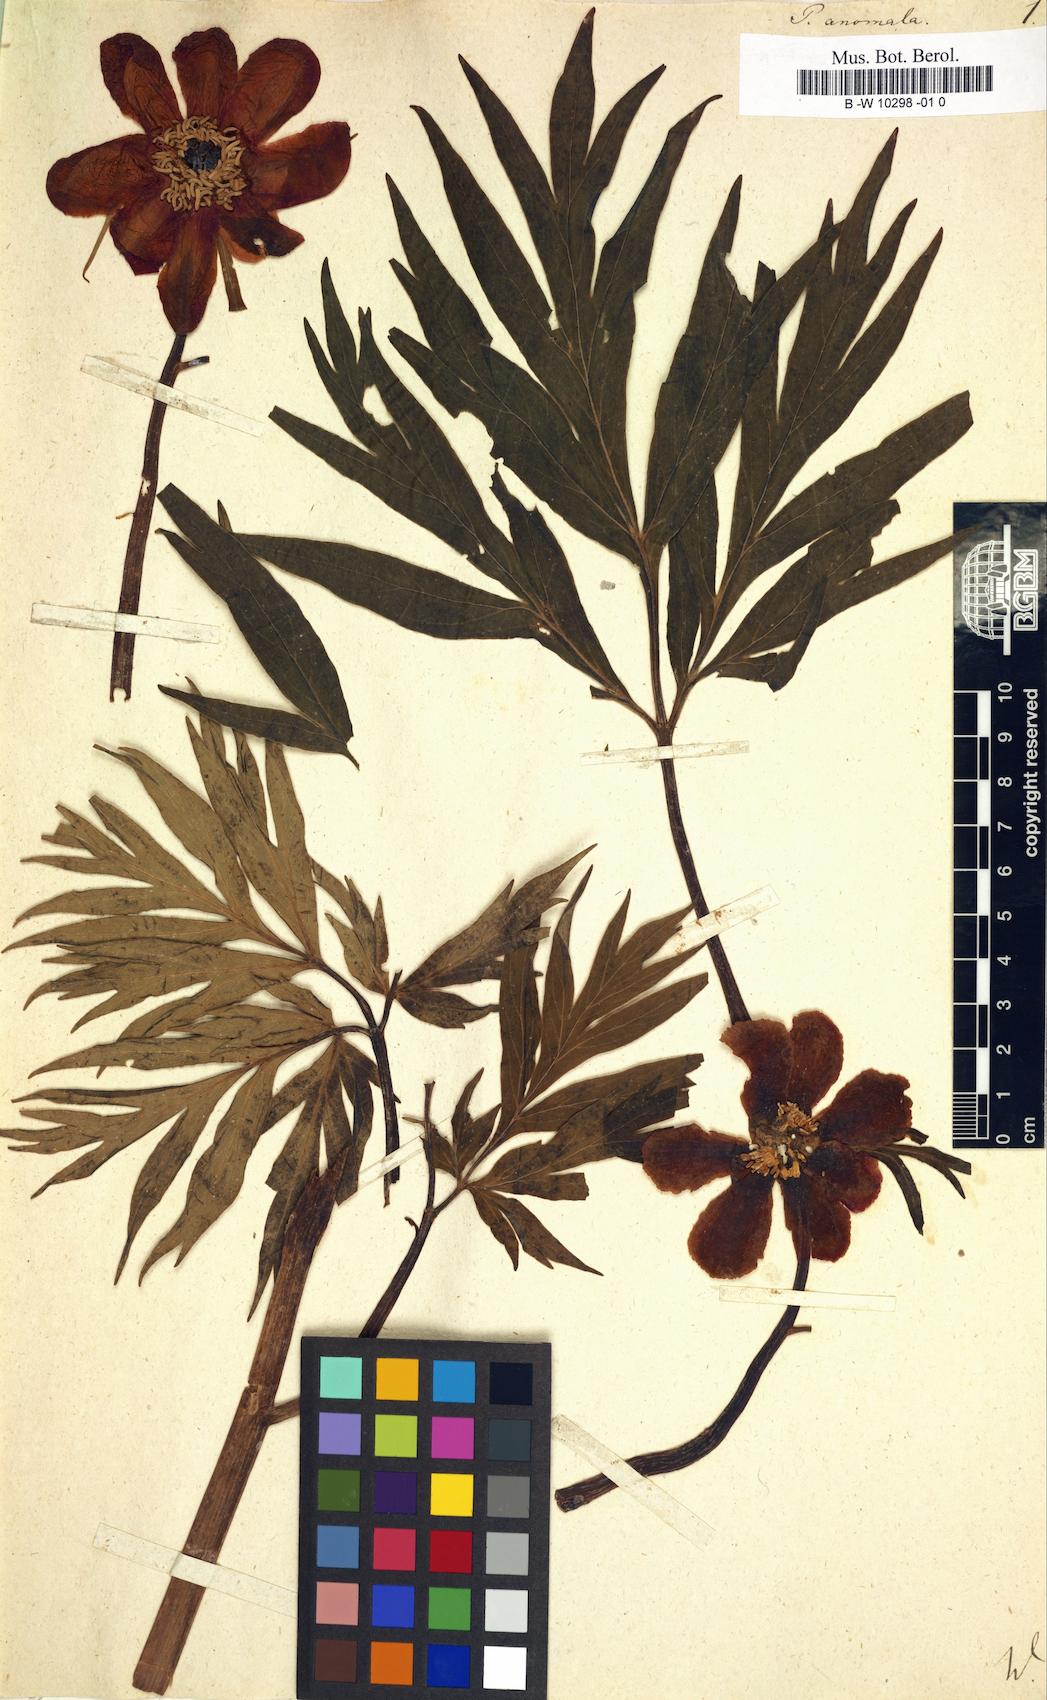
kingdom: Plantae
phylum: Tracheophyta
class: Magnoliopsida
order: Saxifragales
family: Paeoniaceae
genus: Paeonia
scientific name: Paeonia anomala
